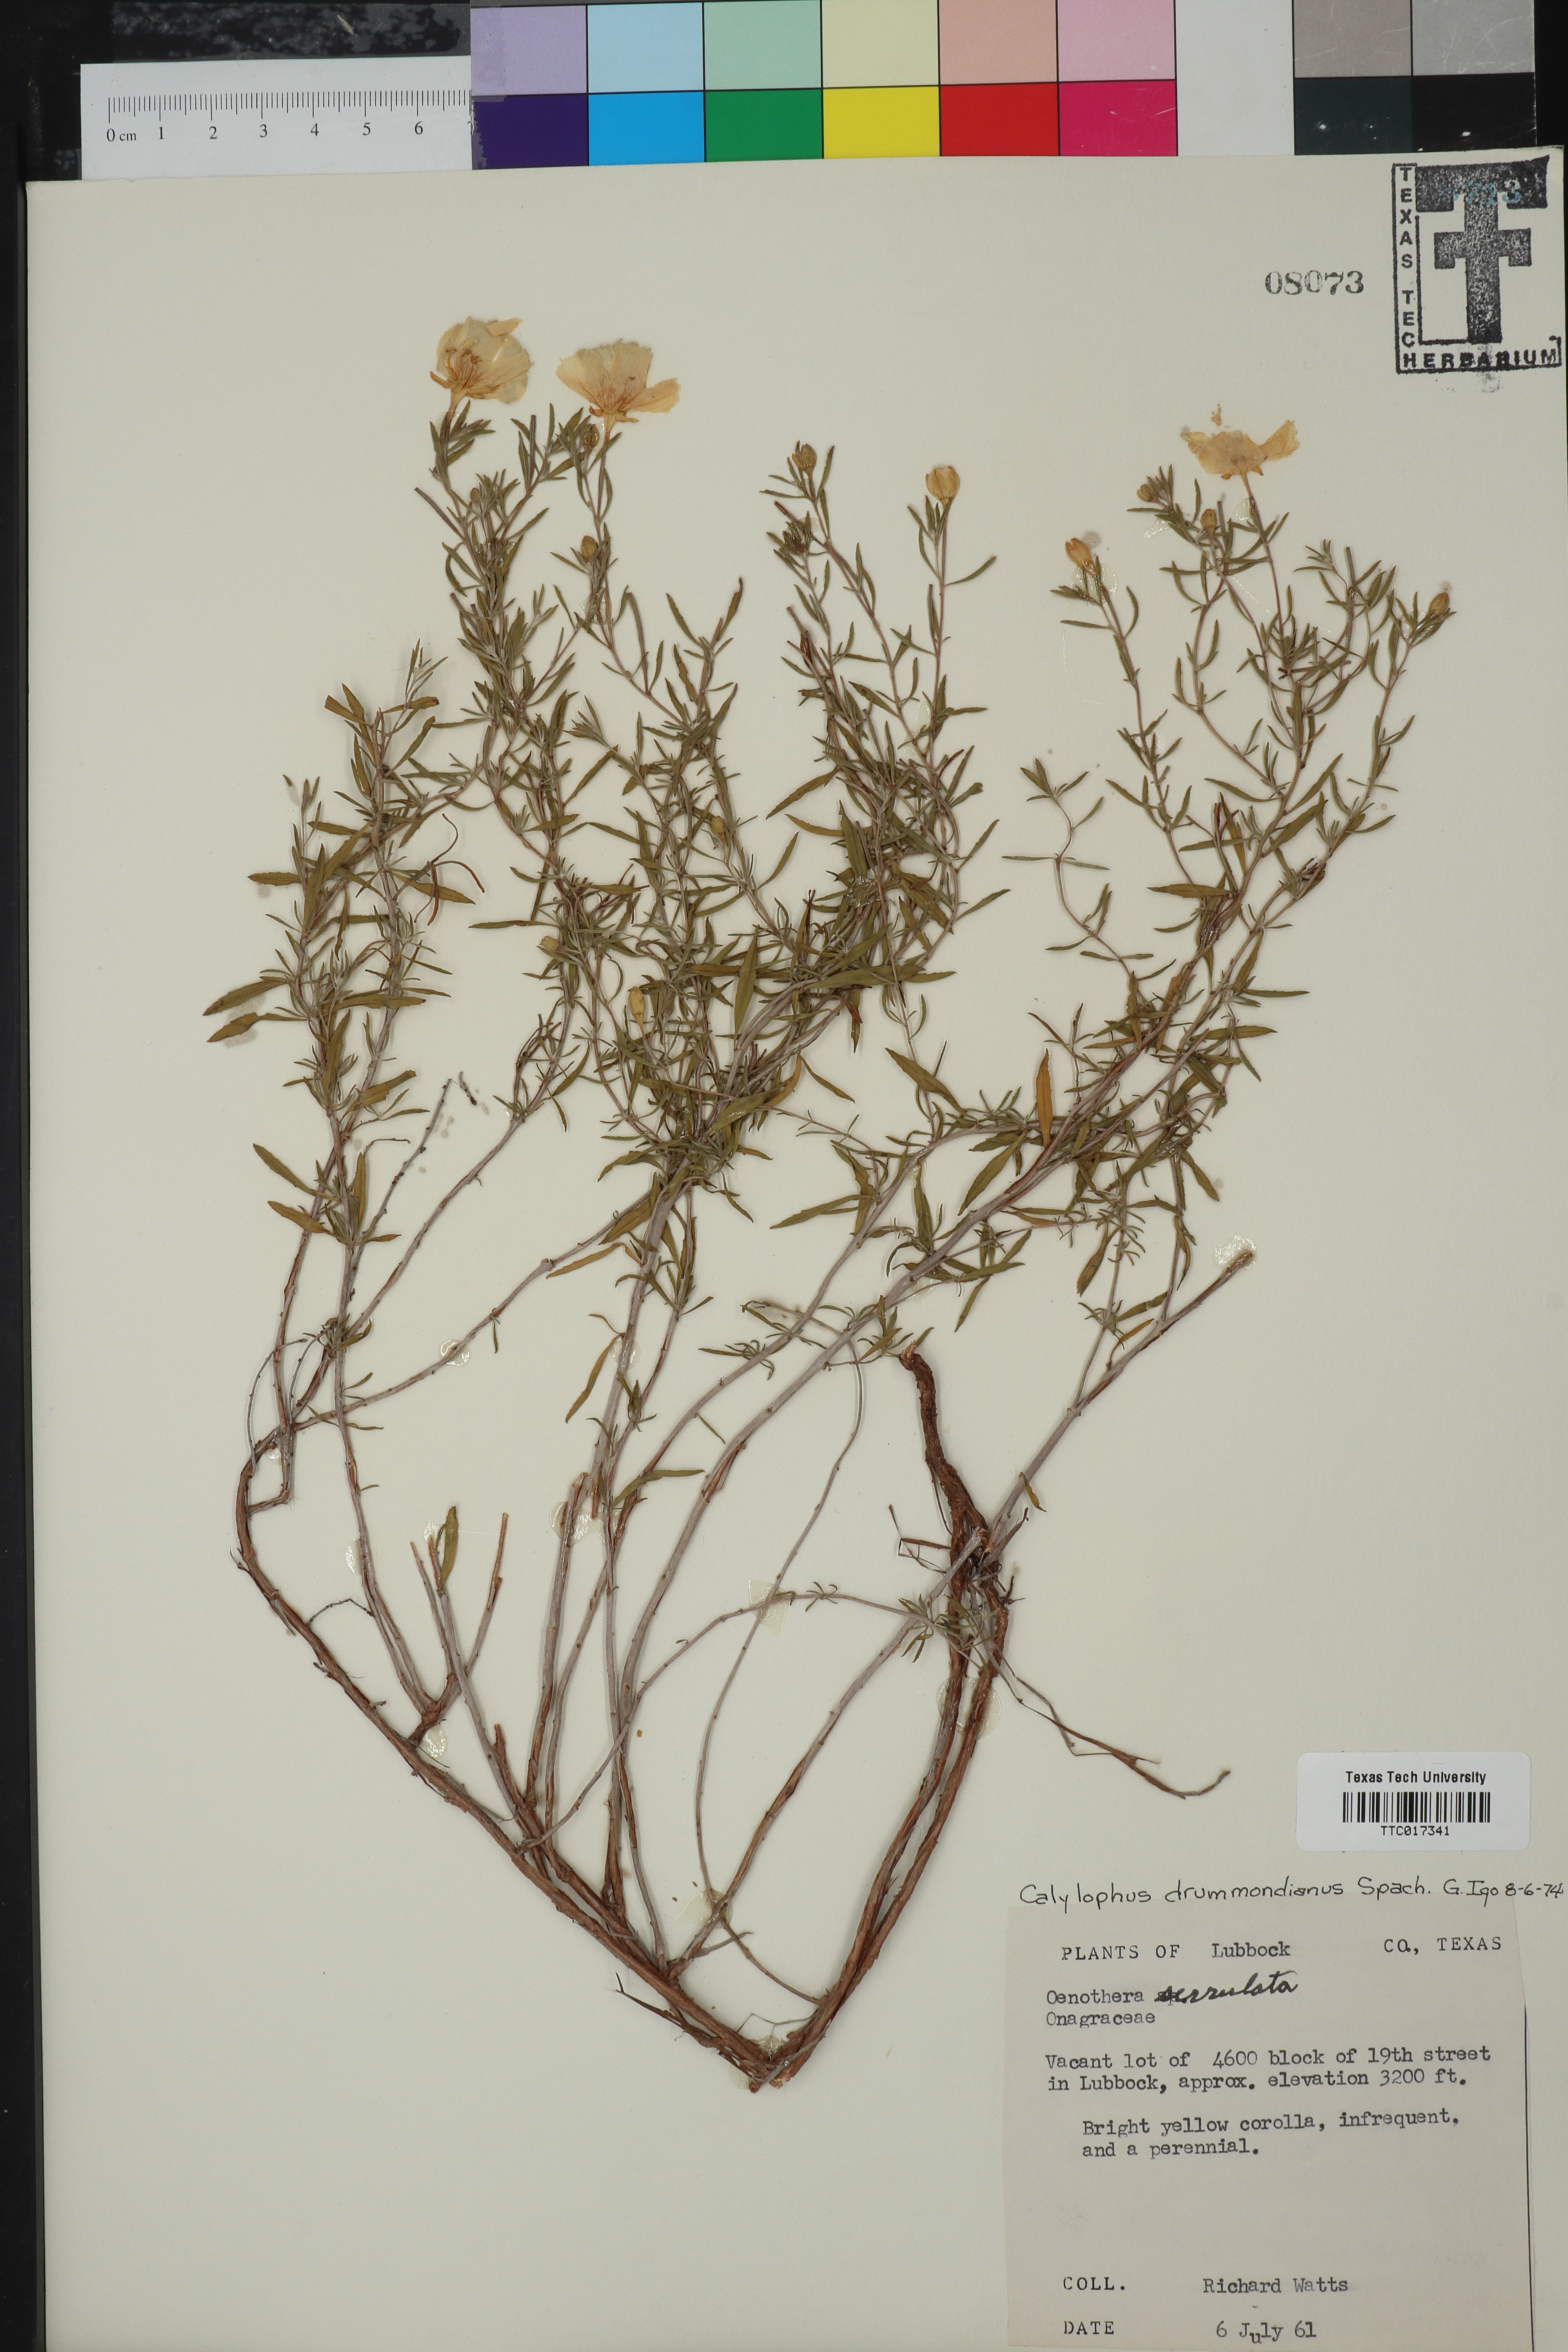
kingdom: Plantae
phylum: Tracheophyta
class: Magnoliopsida
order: Myrtales
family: Onagraceae
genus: Oenothera
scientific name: Oenothera serrulata
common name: Half-shrub calylophus
